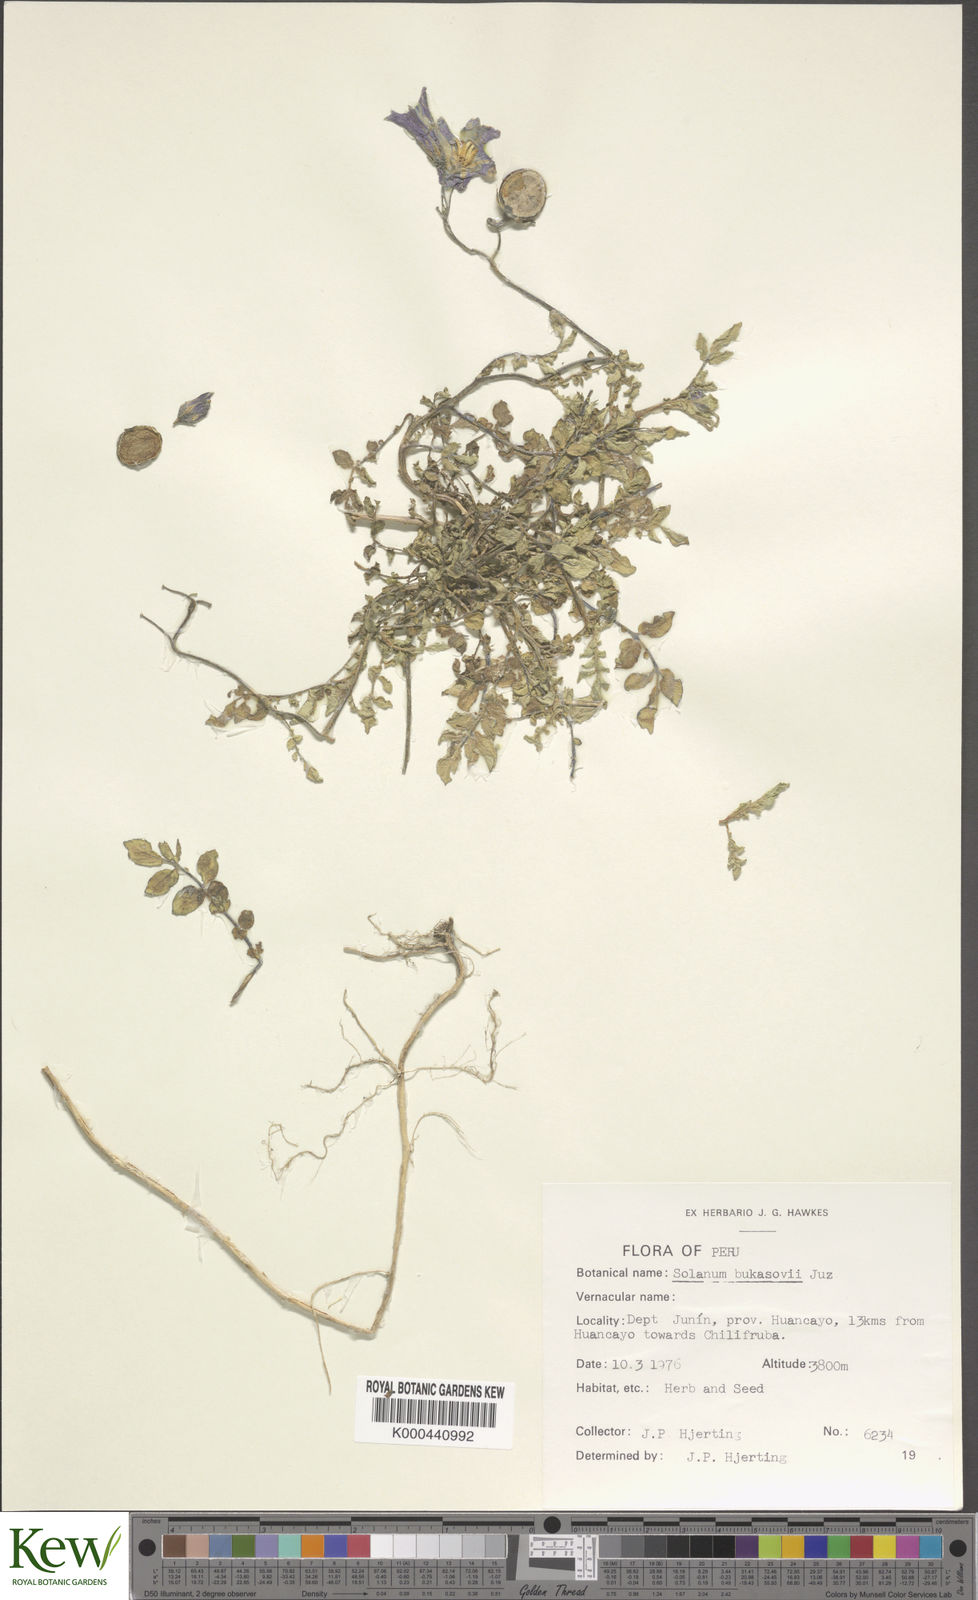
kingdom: Plantae
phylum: Tracheophyta
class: Magnoliopsida
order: Solanales
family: Solanaceae
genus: Solanum
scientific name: Solanum candolleanum
